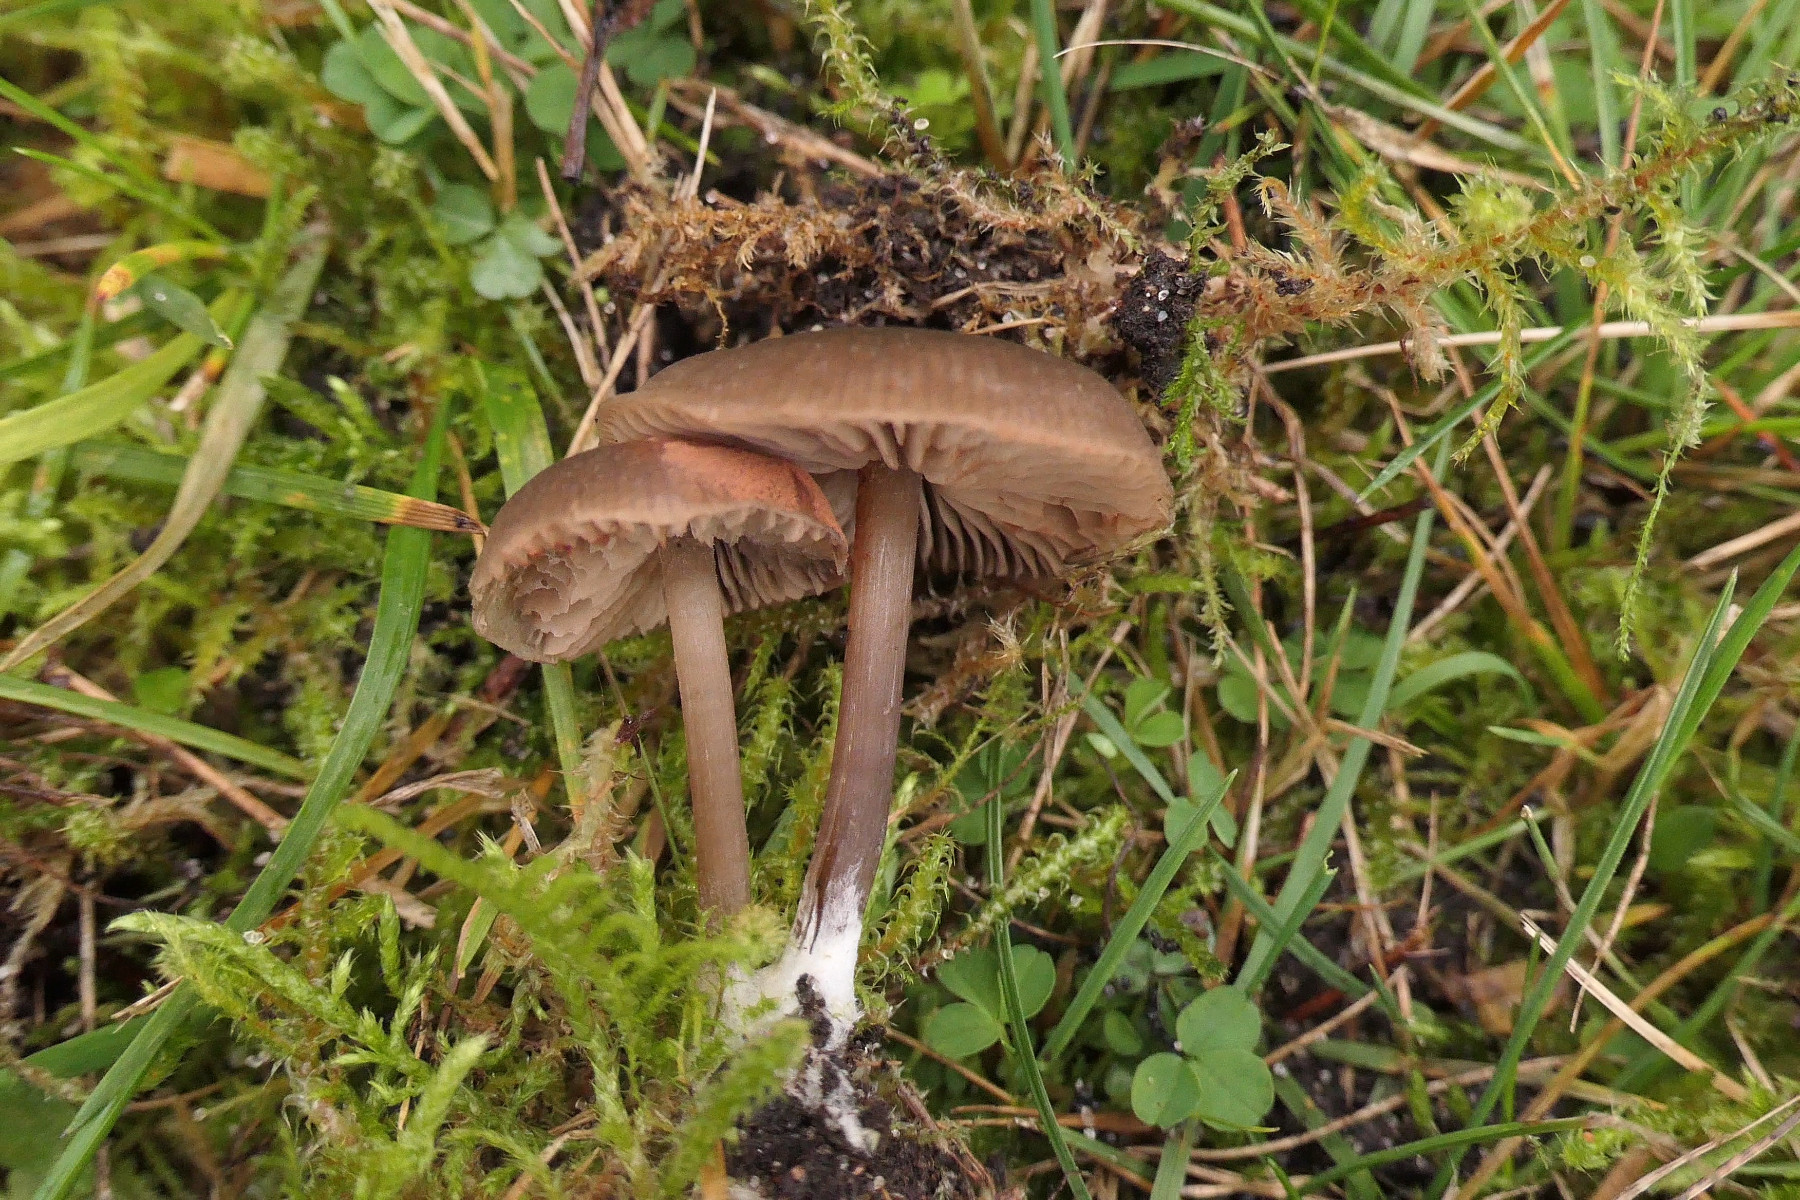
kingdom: Fungi
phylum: Basidiomycota
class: Agaricomycetes
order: Agaricales
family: Entolomataceae
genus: Entoloma
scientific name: Entoloma sericeum
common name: silkeglinsende rødblad
